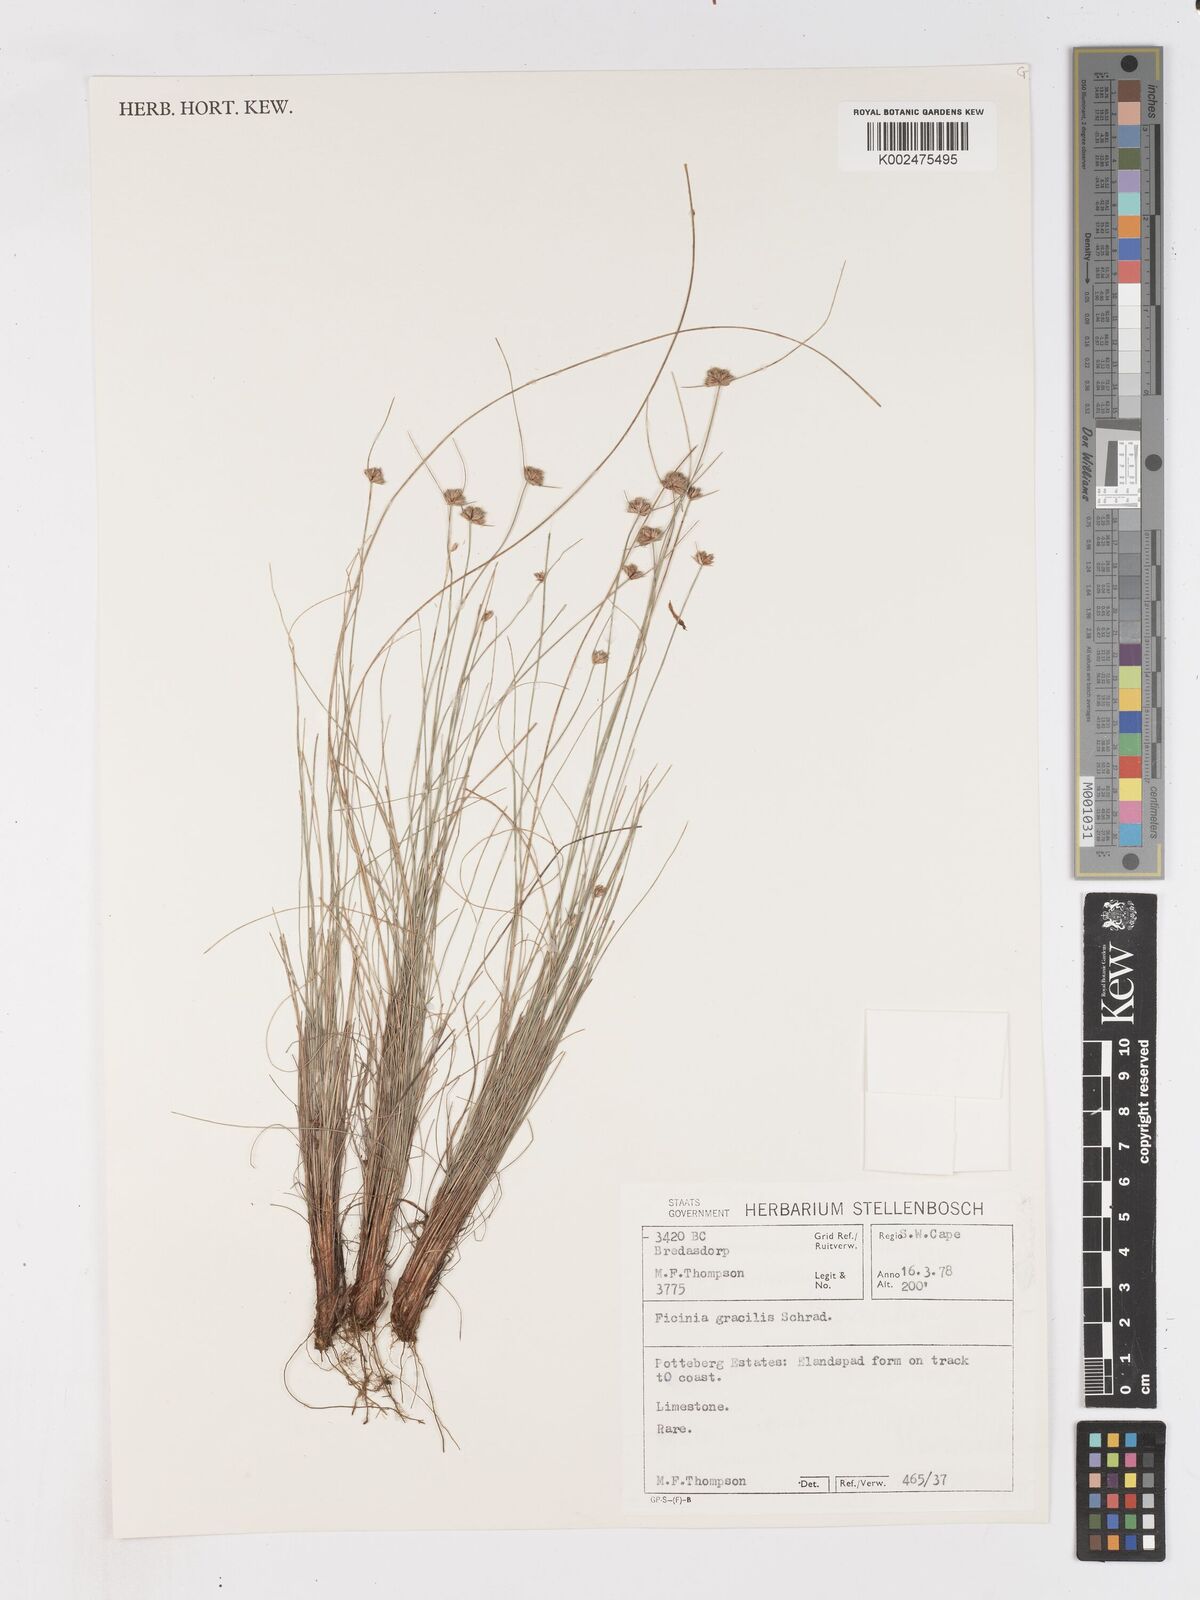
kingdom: Plantae
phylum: Tracheophyta
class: Liliopsida
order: Poales
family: Cyperaceae
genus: Ficinia
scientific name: Ficinia gracilis
